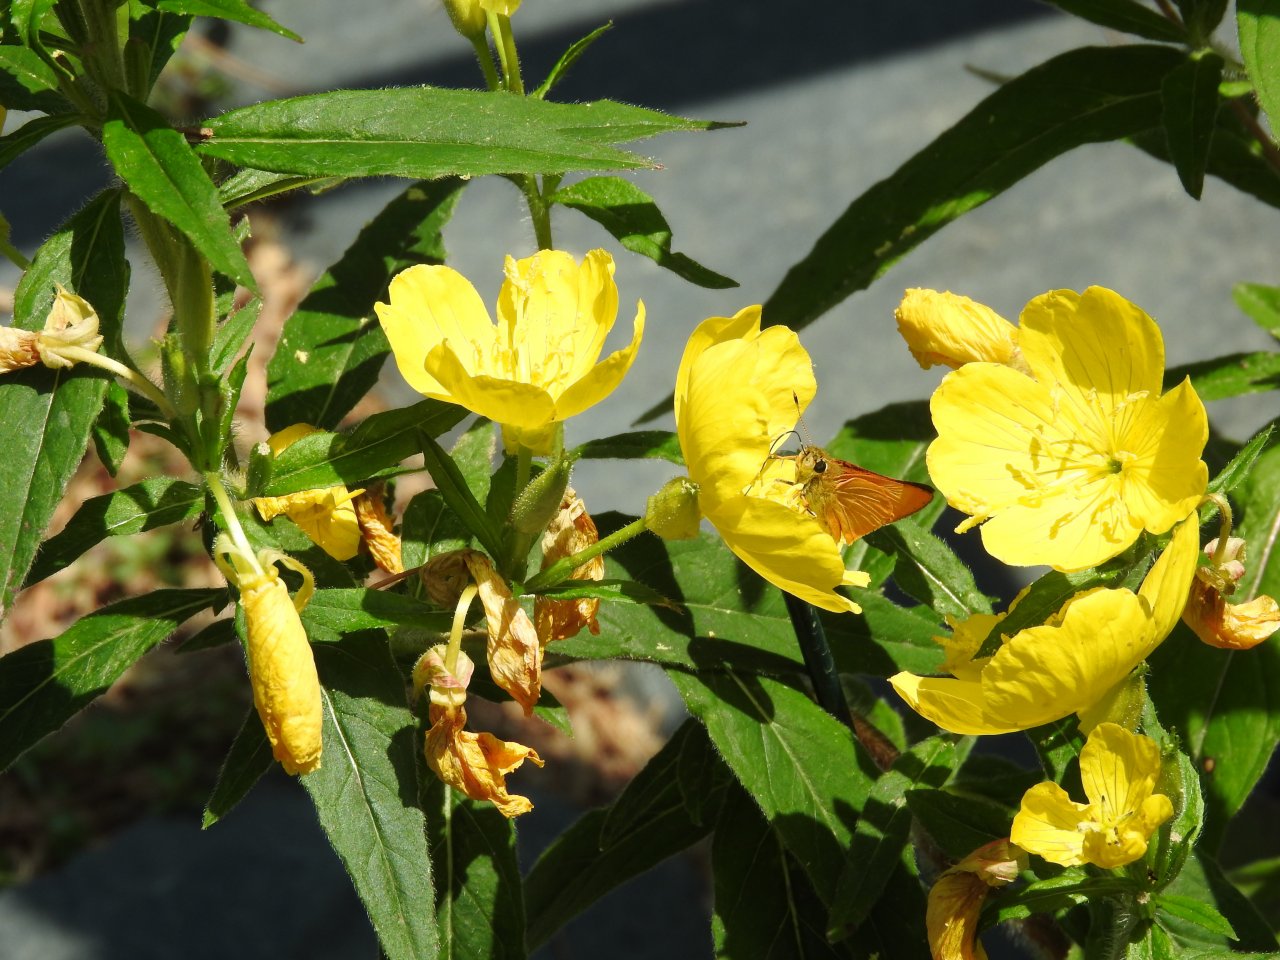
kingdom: Animalia
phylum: Arthropoda
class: Insecta
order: Lepidoptera
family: Hesperiidae
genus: Atrytone
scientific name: Atrytone delaware
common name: Delaware Skipper
